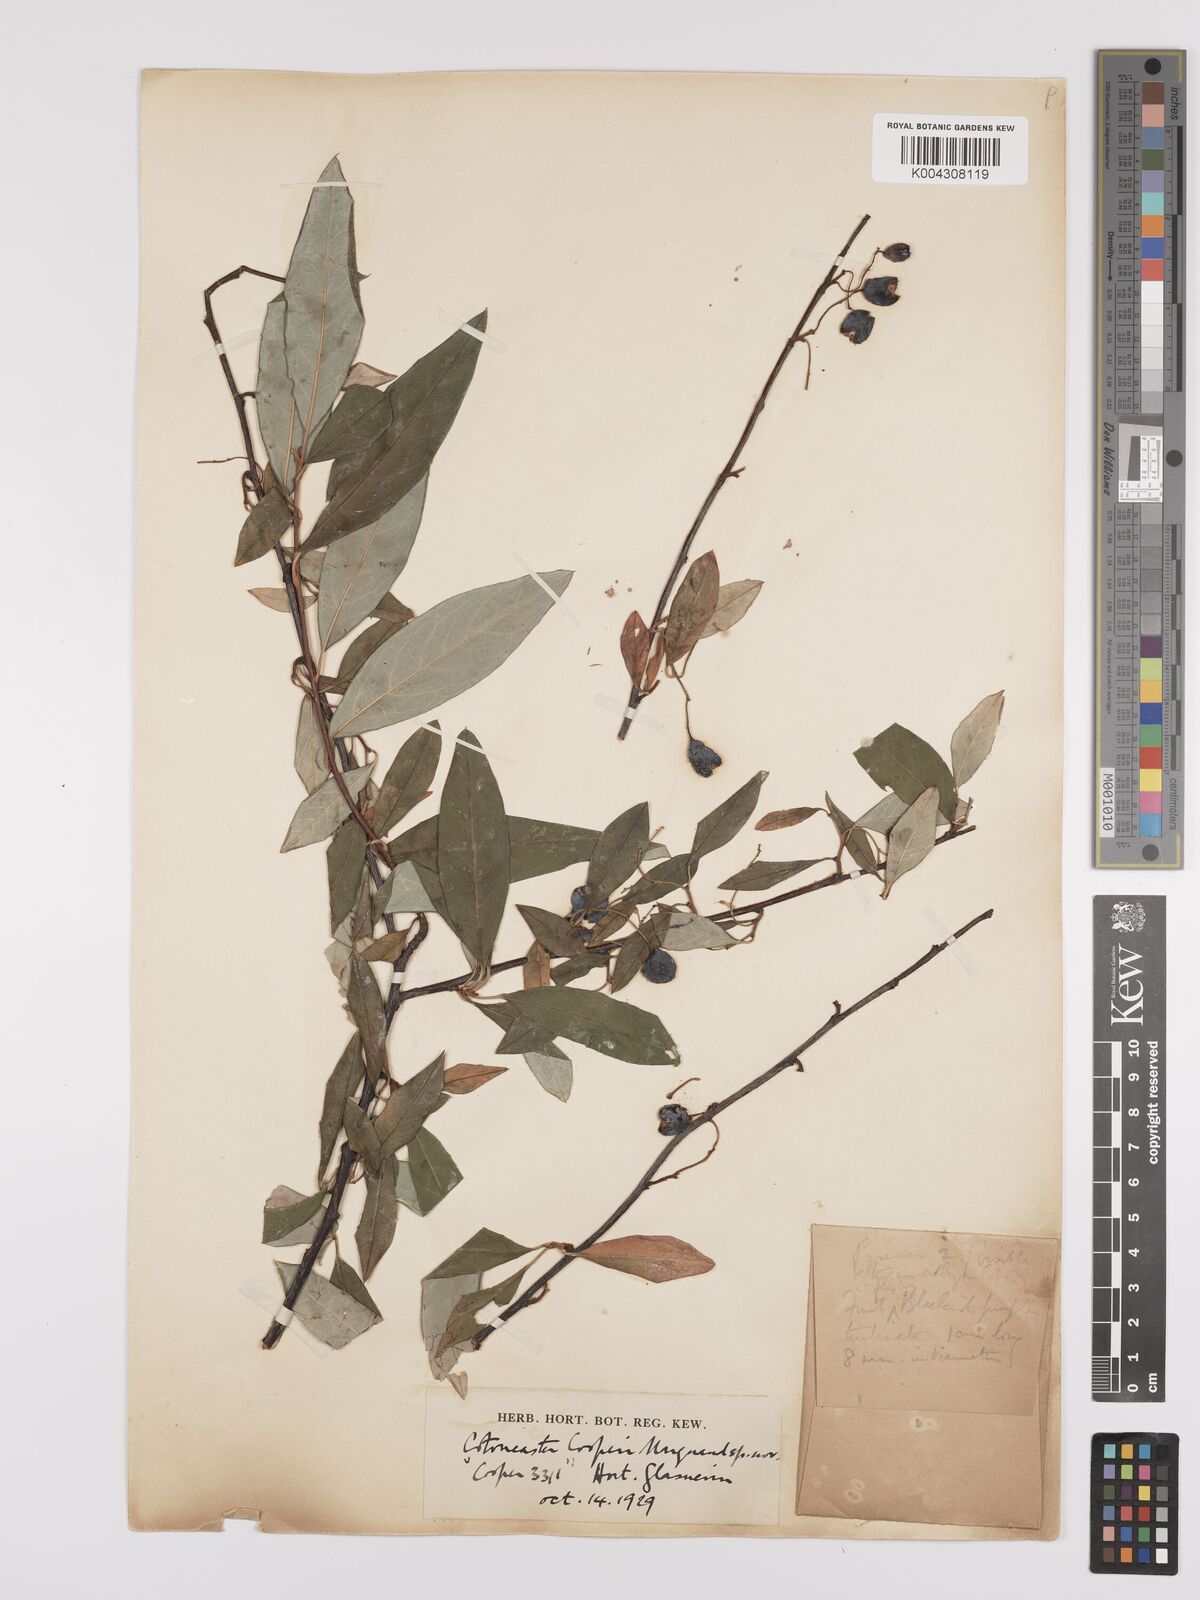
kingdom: Plantae
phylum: Tracheophyta
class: Magnoliopsida
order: Rosales
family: Rosaceae
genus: Cotoneaster
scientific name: Cotoneaster cooperi
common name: Cooper's cotoneaster
